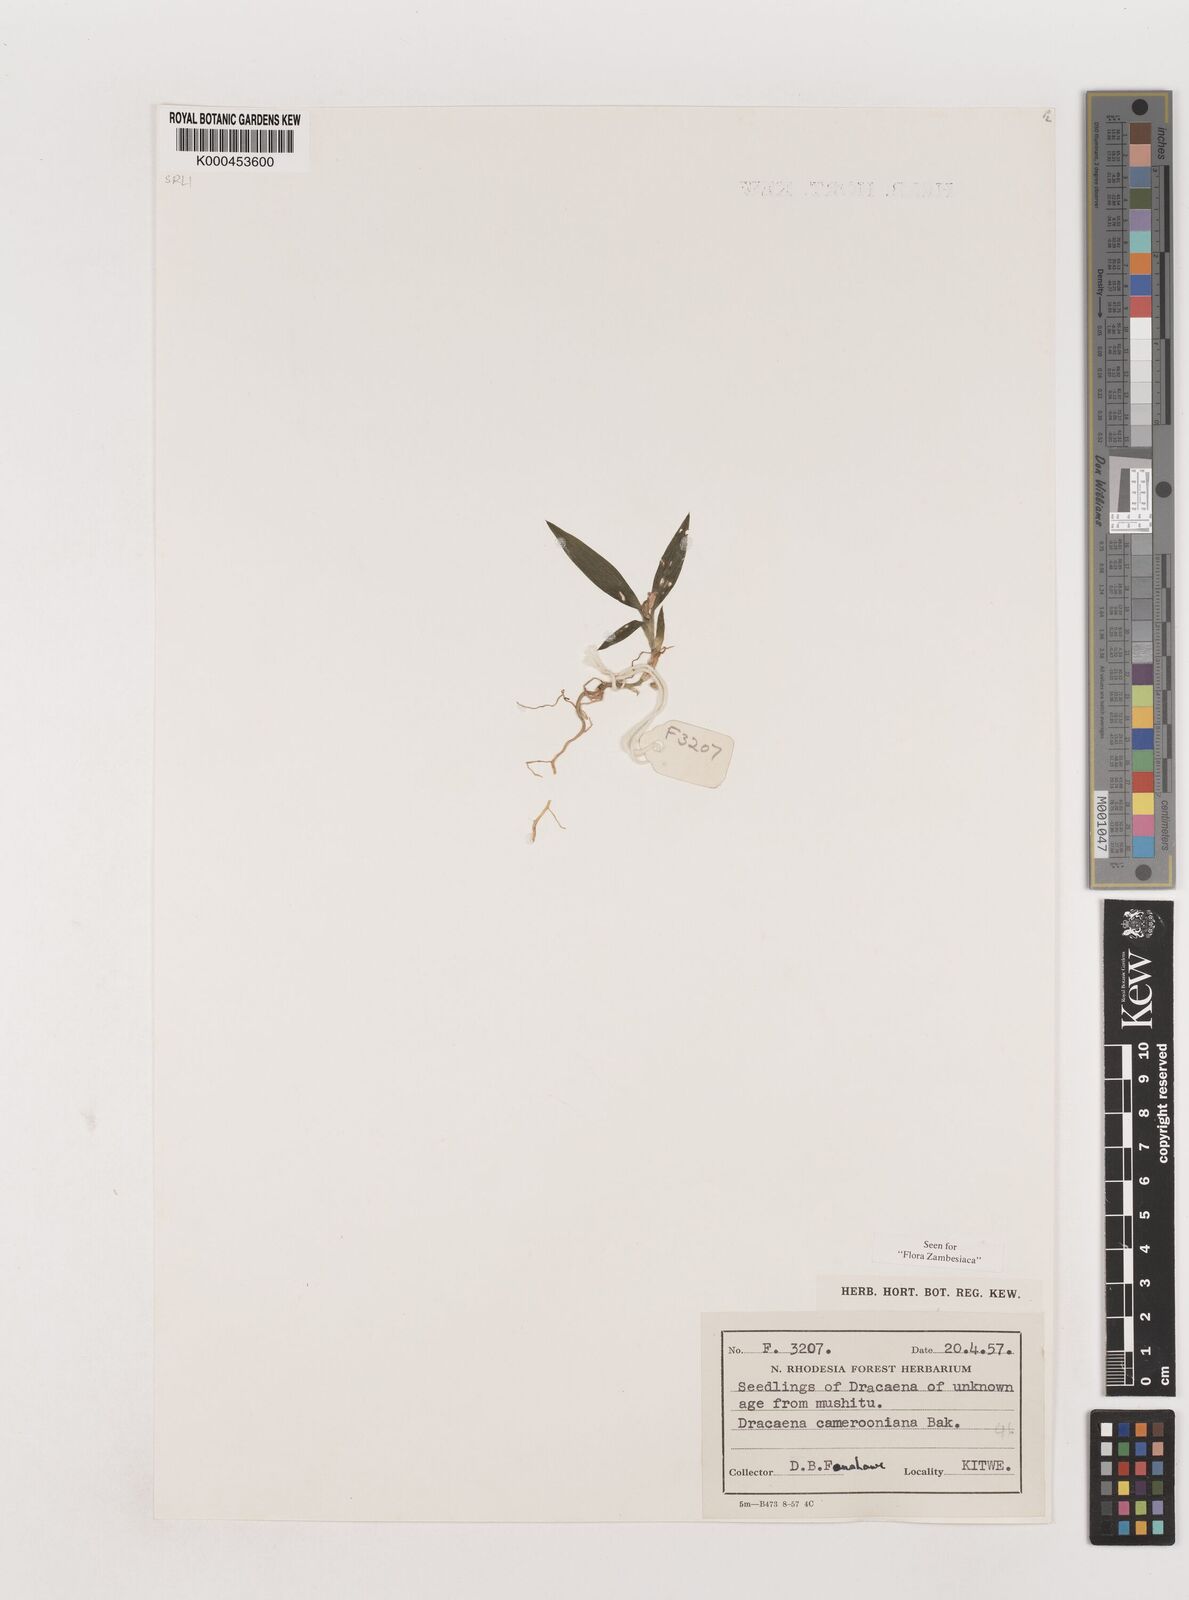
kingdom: Plantae
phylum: Tracheophyta
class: Liliopsida
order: Asparagales
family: Asparagaceae
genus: Dracaena
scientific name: Dracaena camerooniana
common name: Dragon tree
